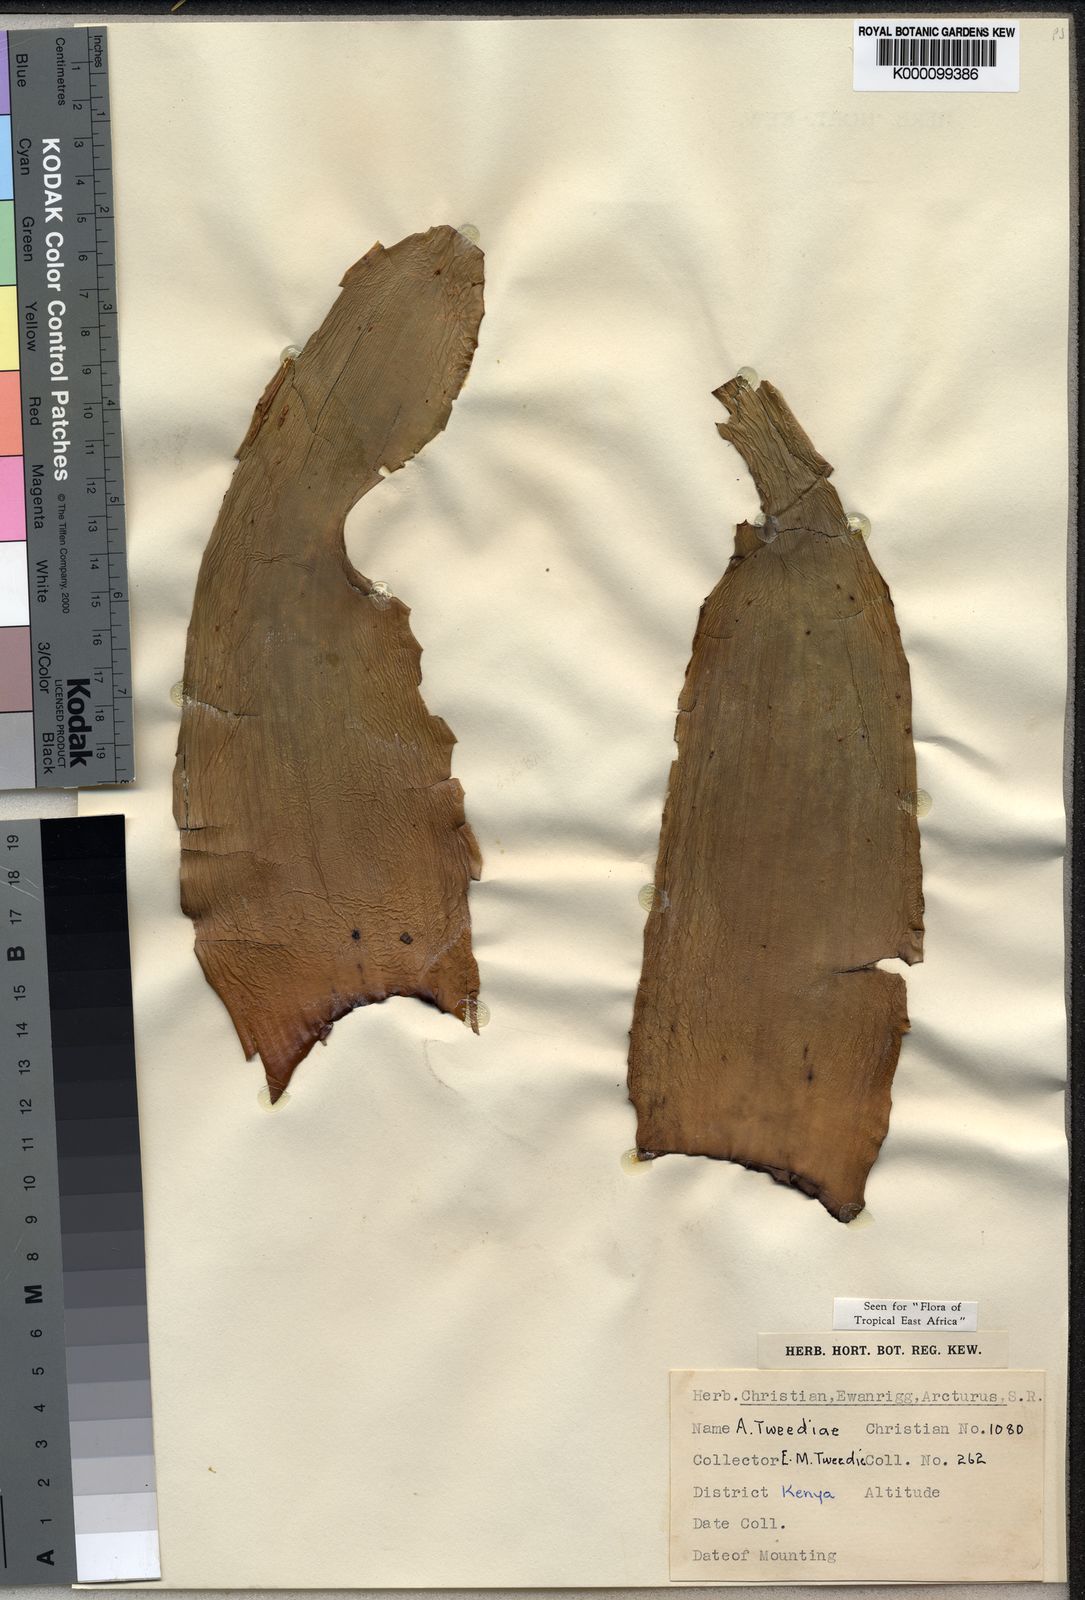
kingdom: Plantae
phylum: Tracheophyta
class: Liliopsida
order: Asparagales
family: Asphodelaceae
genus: Aloe
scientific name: Aloe
